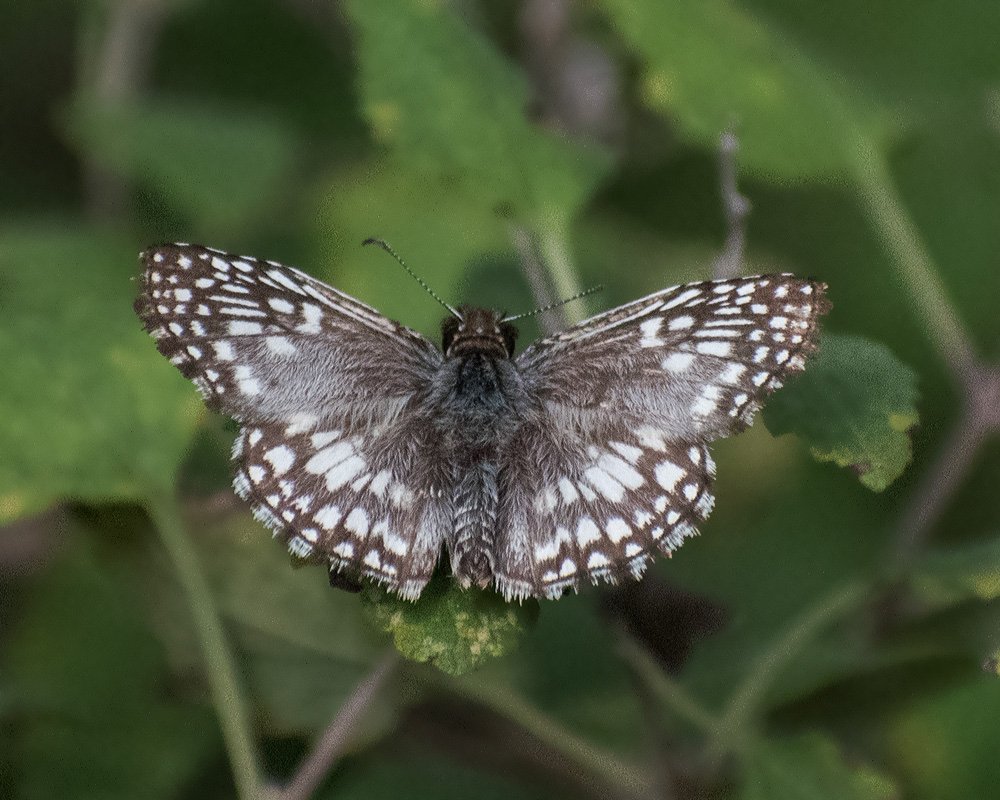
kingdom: Animalia
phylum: Arthropoda
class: Insecta
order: Lepidoptera
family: Hesperiidae
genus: Pyrgus
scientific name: Pyrgus oileus
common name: Tropical Checkered-Skipper
